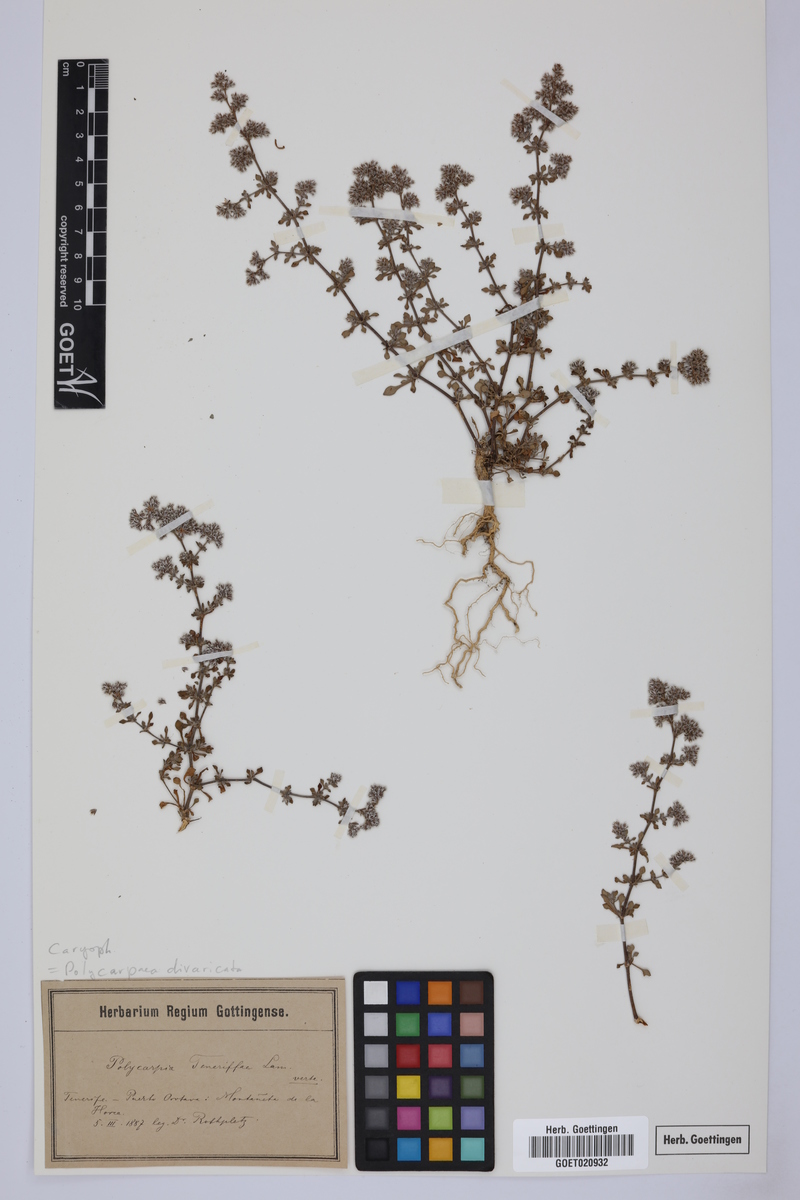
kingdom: Plantae
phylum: Tracheophyta
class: Magnoliopsida
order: Caryophyllales
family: Caryophyllaceae
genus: Polycarpaea
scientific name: Polycarpaea divaricata
